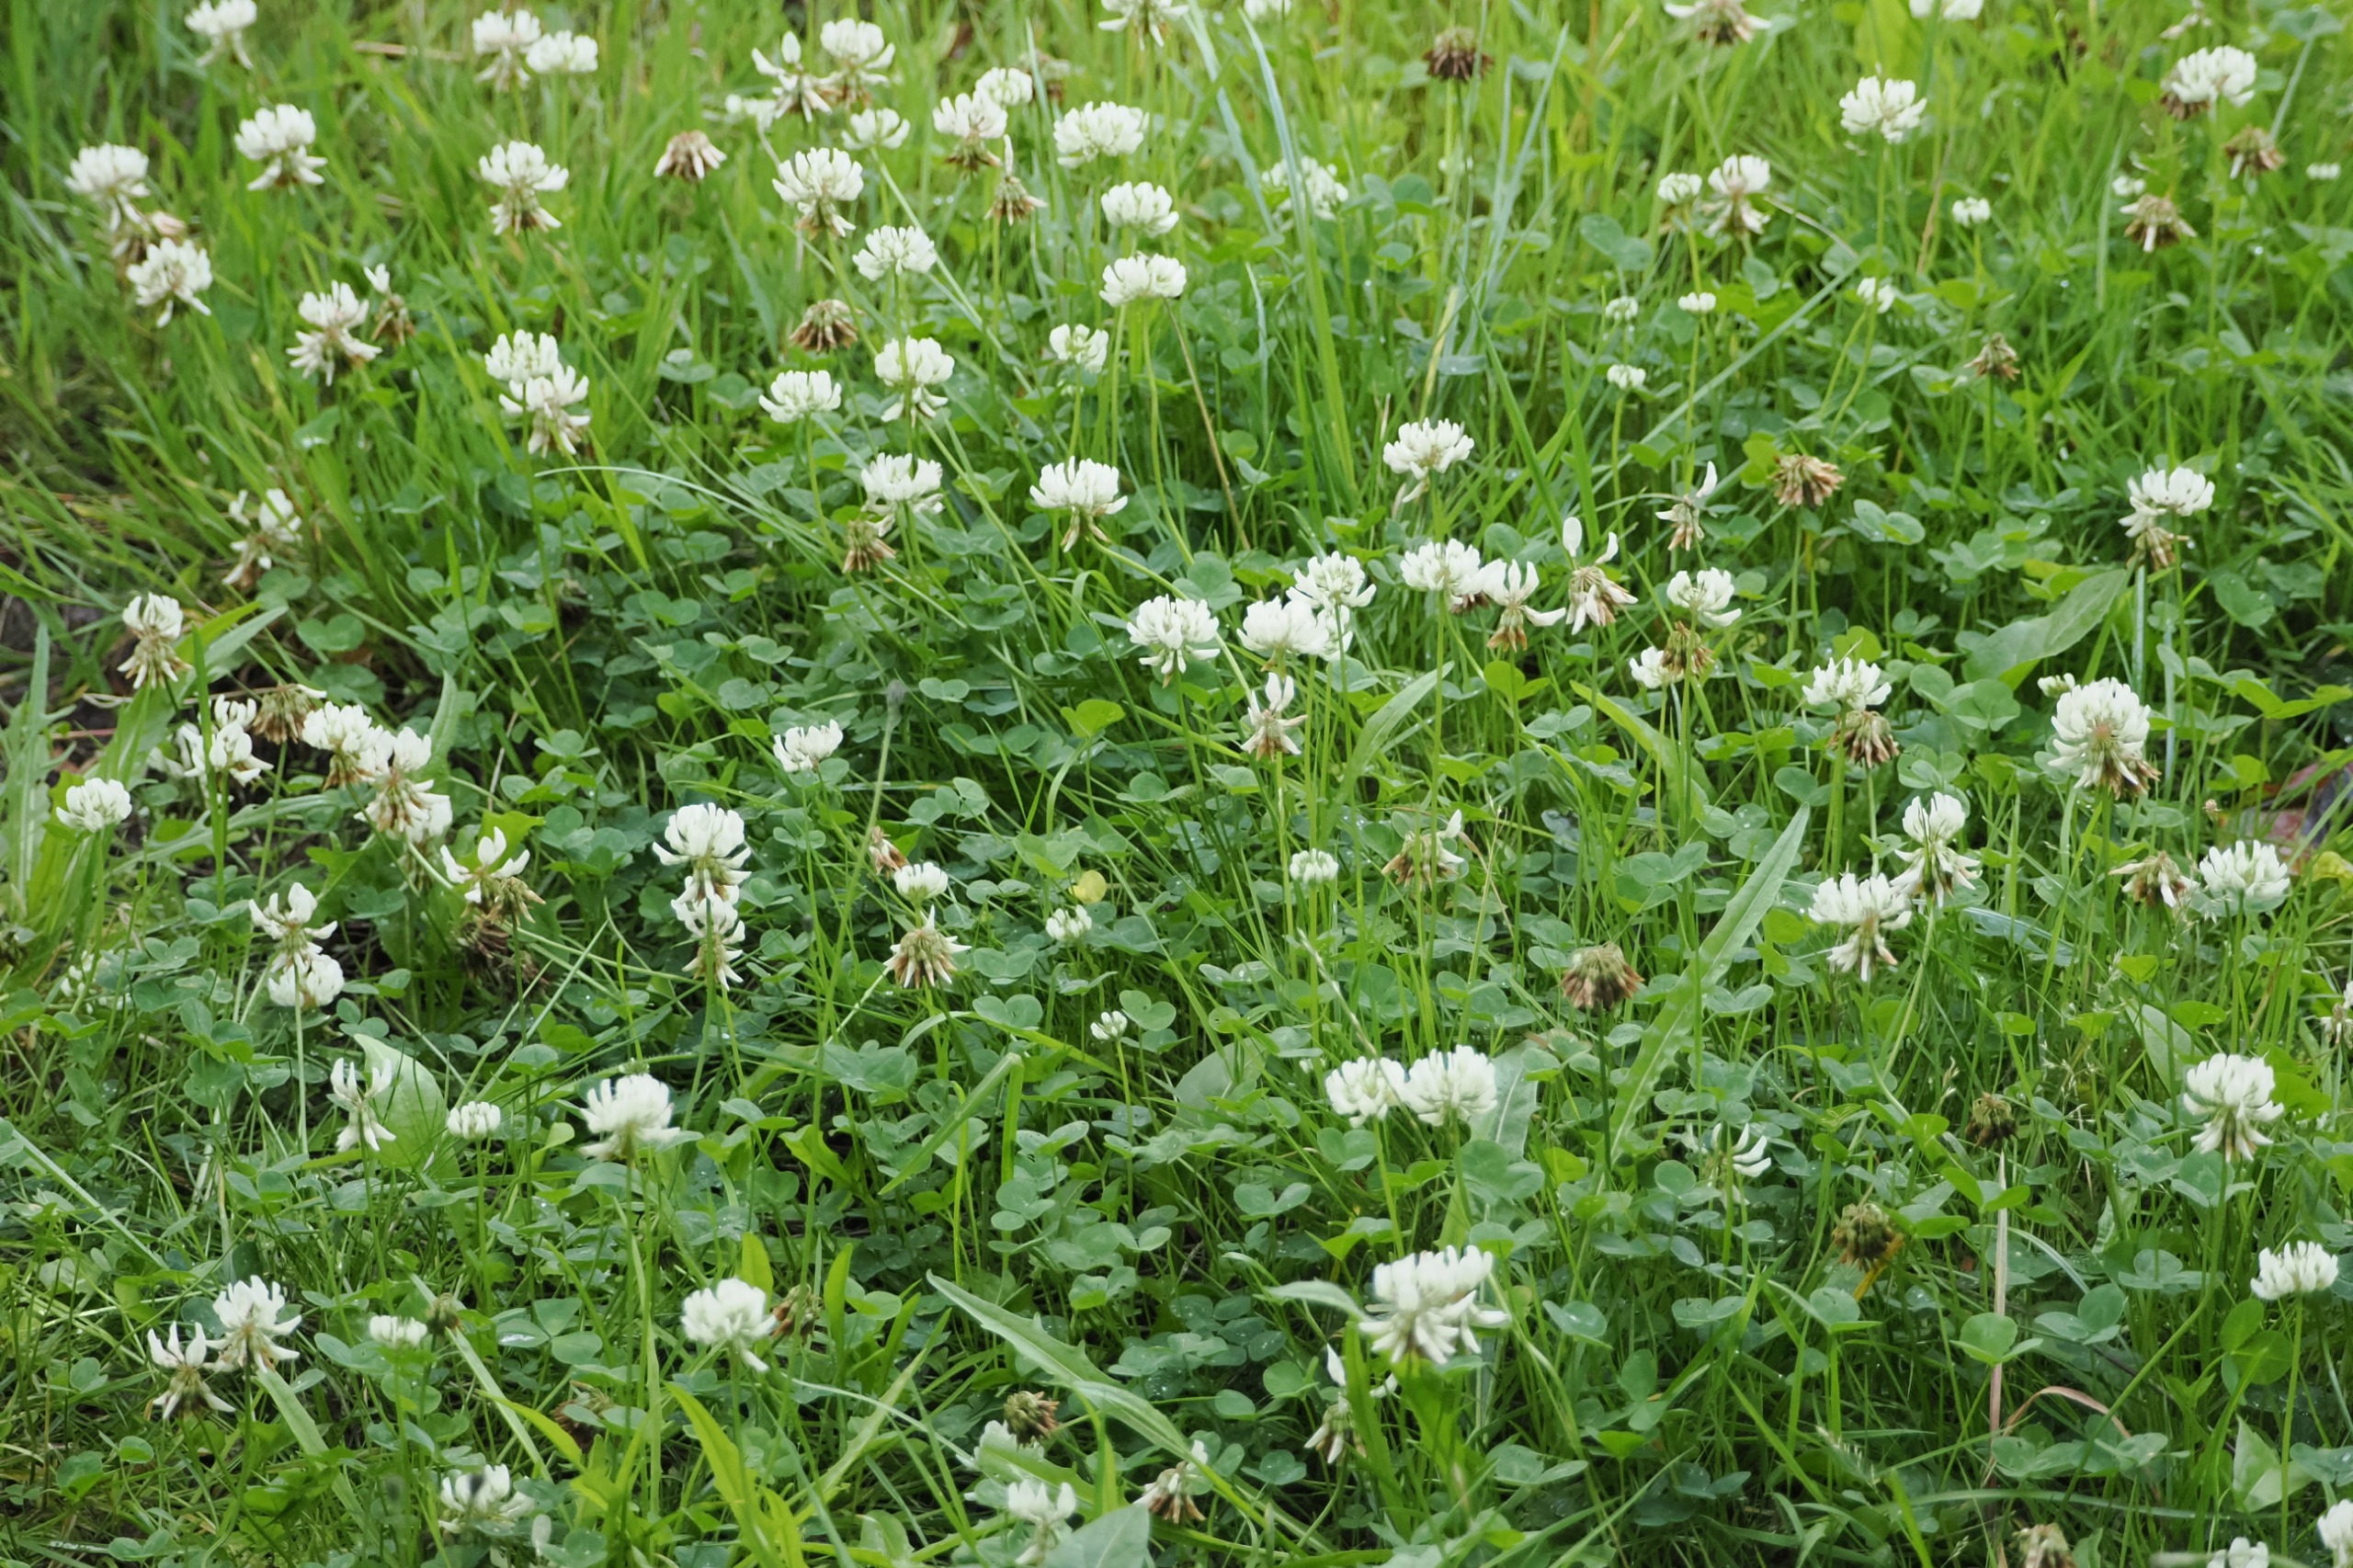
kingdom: Plantae
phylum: Tracheophyta
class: Magnoliopsida
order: Fabales
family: Fabaceae
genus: Trifolium
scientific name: Trifolium repens
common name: Hvid-kløver
